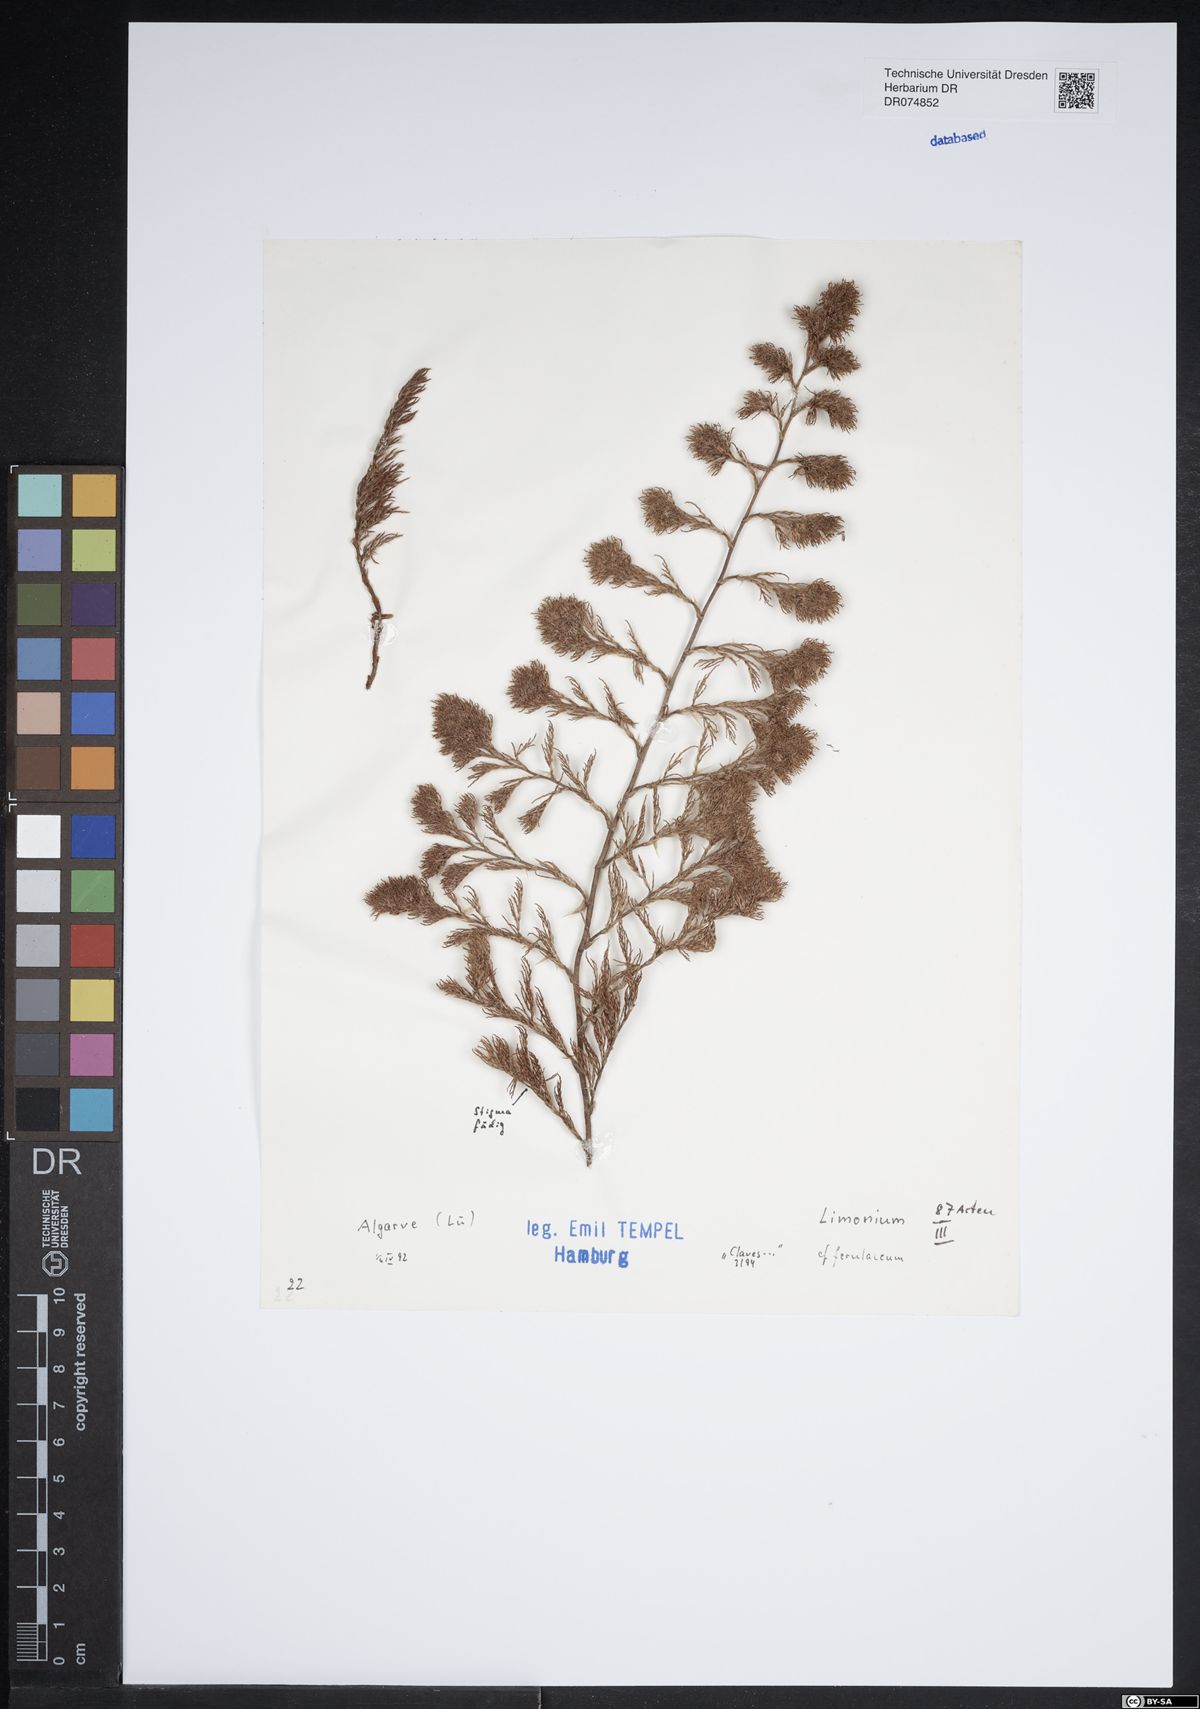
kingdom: Plantae
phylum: Tracheophyta
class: Magnoliopsida
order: Caryophyllales
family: Plumbaginaceae
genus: Myriolimon
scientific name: Myriolimon ferulaceum
